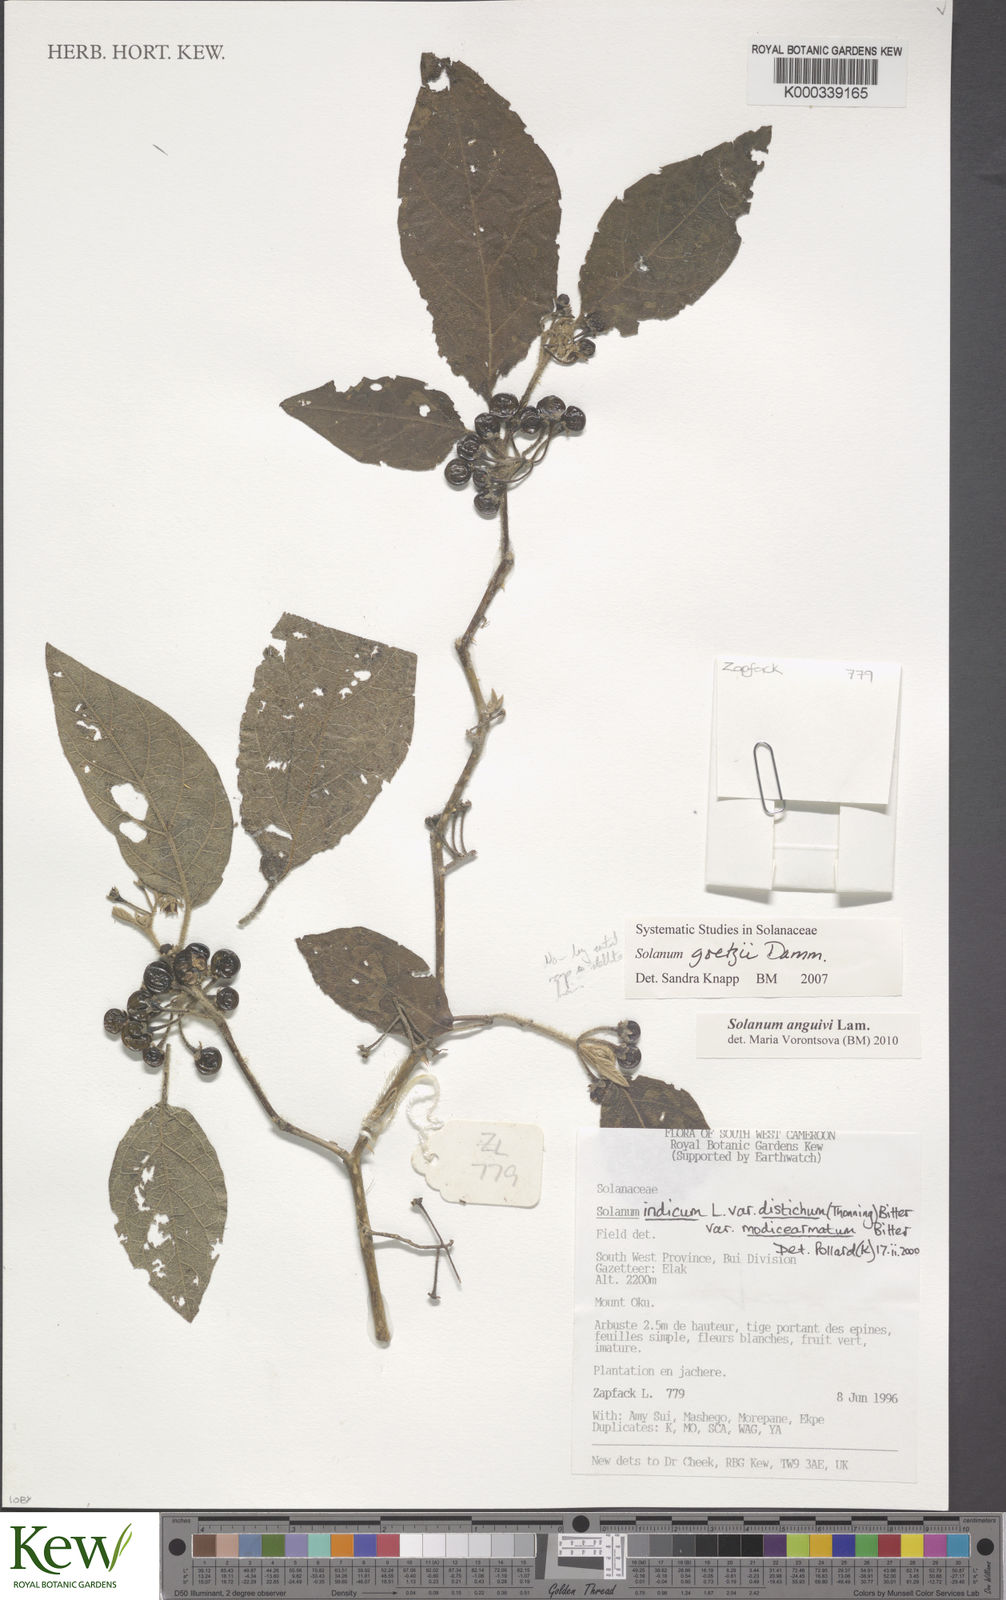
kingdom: Plantae
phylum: Tracheophyta
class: Magnoliopsida
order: Solanales
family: Solanaceae
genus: Solanum
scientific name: Solanum violaceum
